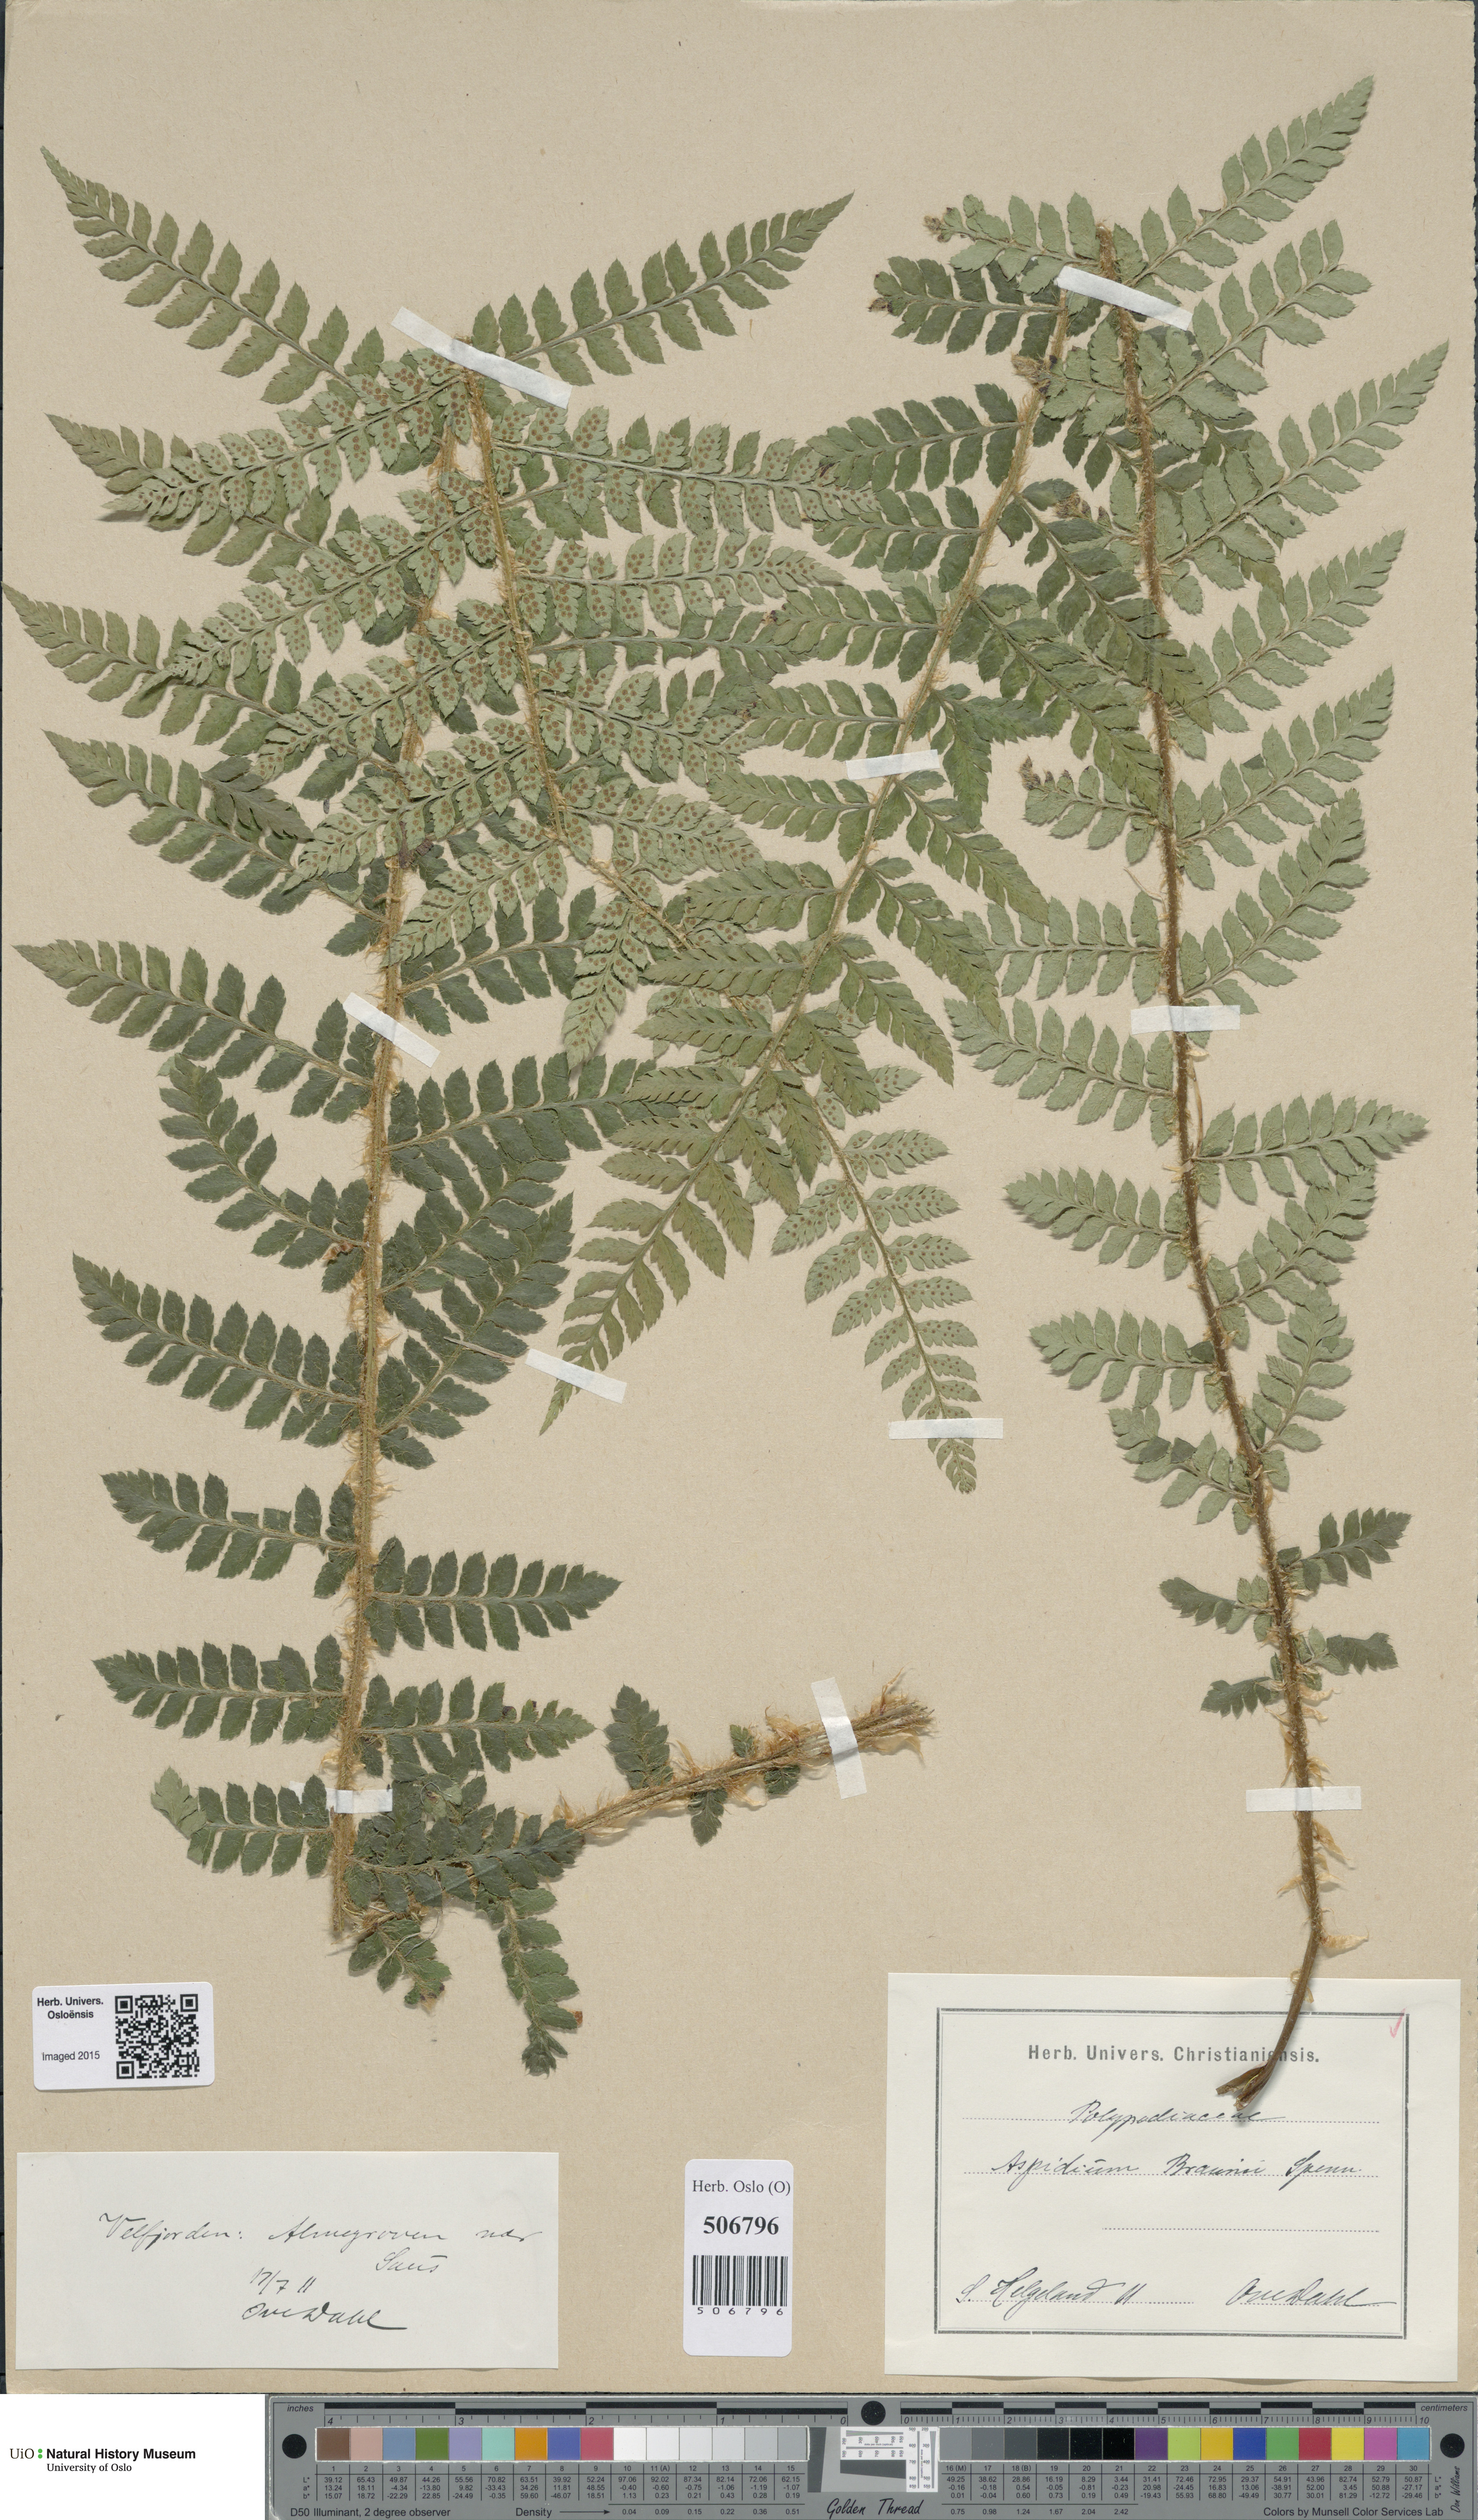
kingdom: Plantae
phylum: Tracheophyta
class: Polypodiopsida
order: Polypodiales
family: Dryopteridaceae
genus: Polystichum
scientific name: Polystichum braunii
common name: Braun's holly fern
